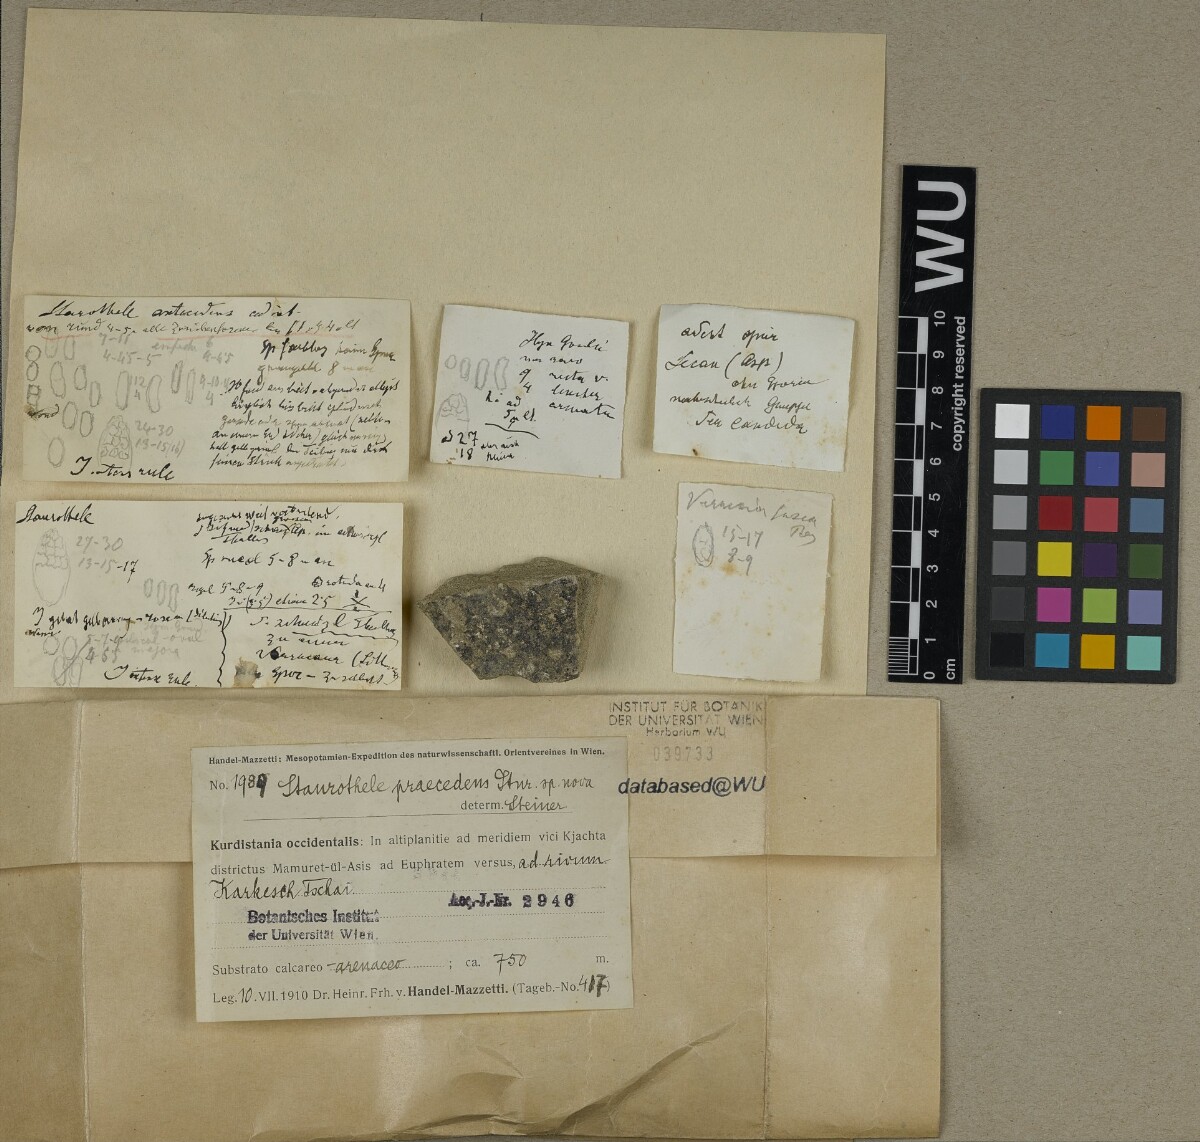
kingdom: Fungi
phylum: Ascomycota
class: Eurotiomycetes
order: Verrucariales
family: Verrucariaceae
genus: Staurothele
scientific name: Staurothele
